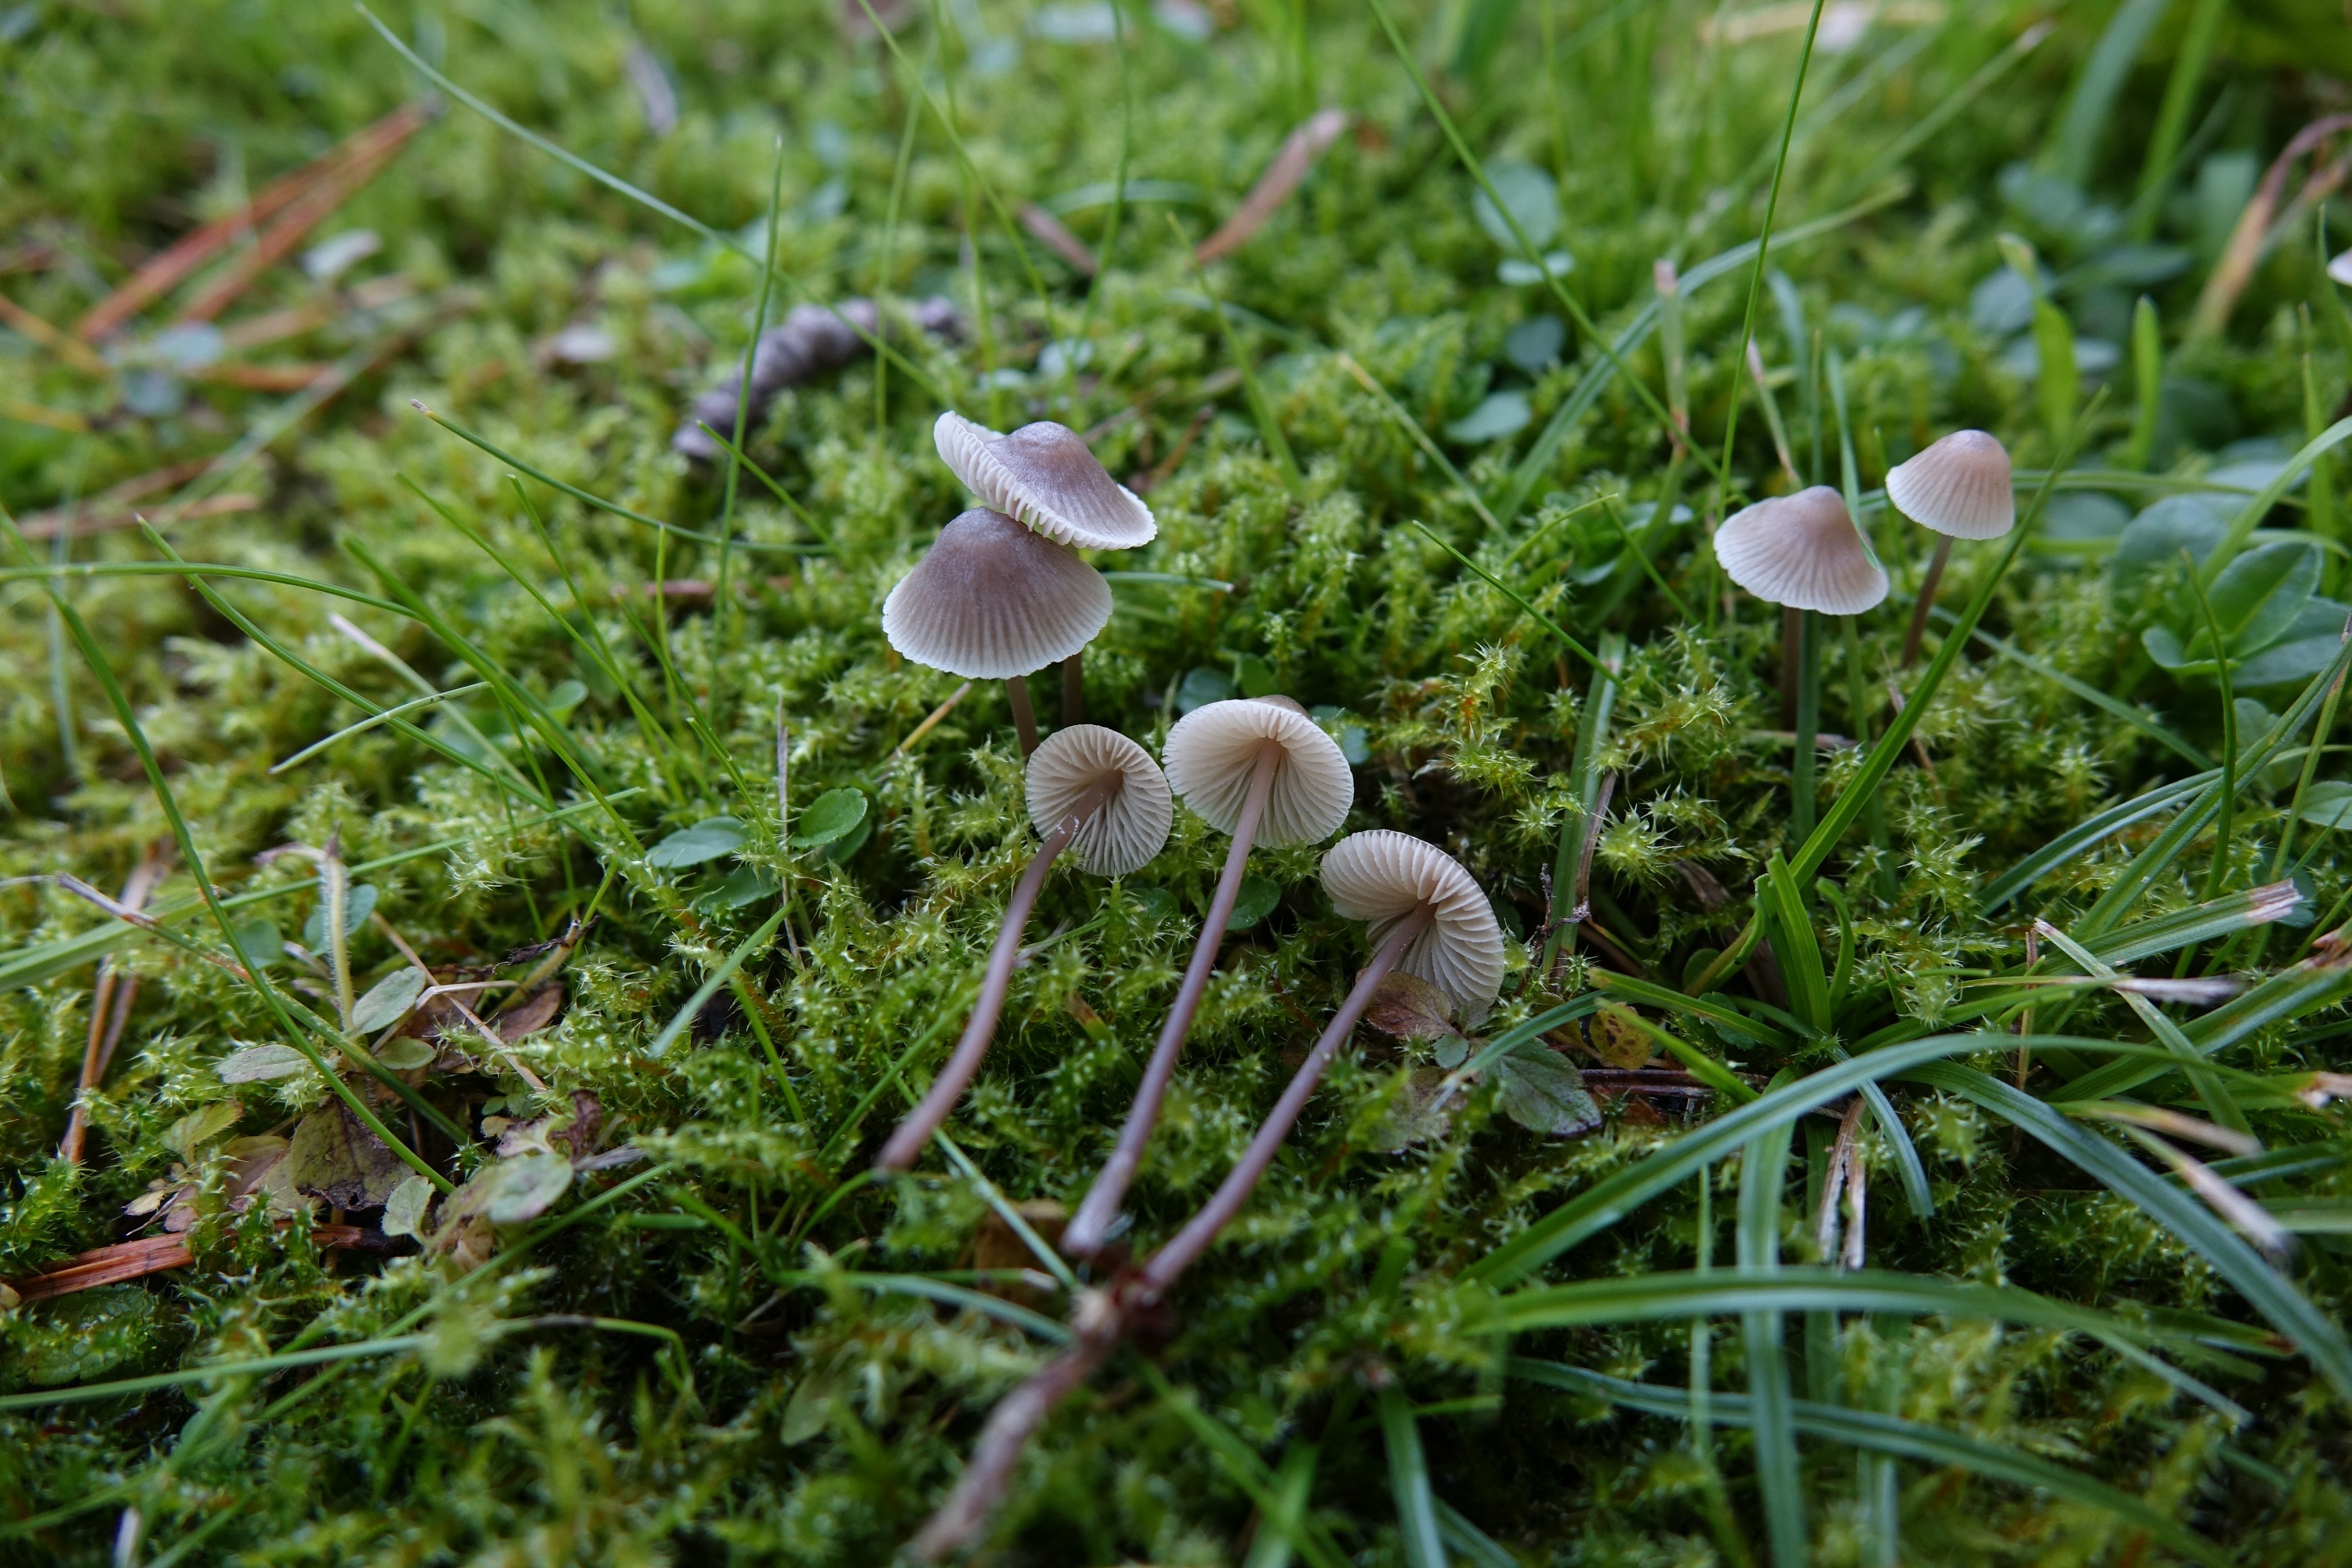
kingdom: Fungi
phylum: Basidiomycota
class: Agaricomycetes
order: Agaricales
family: Mycenaceae
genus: Mycena
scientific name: Mycena
